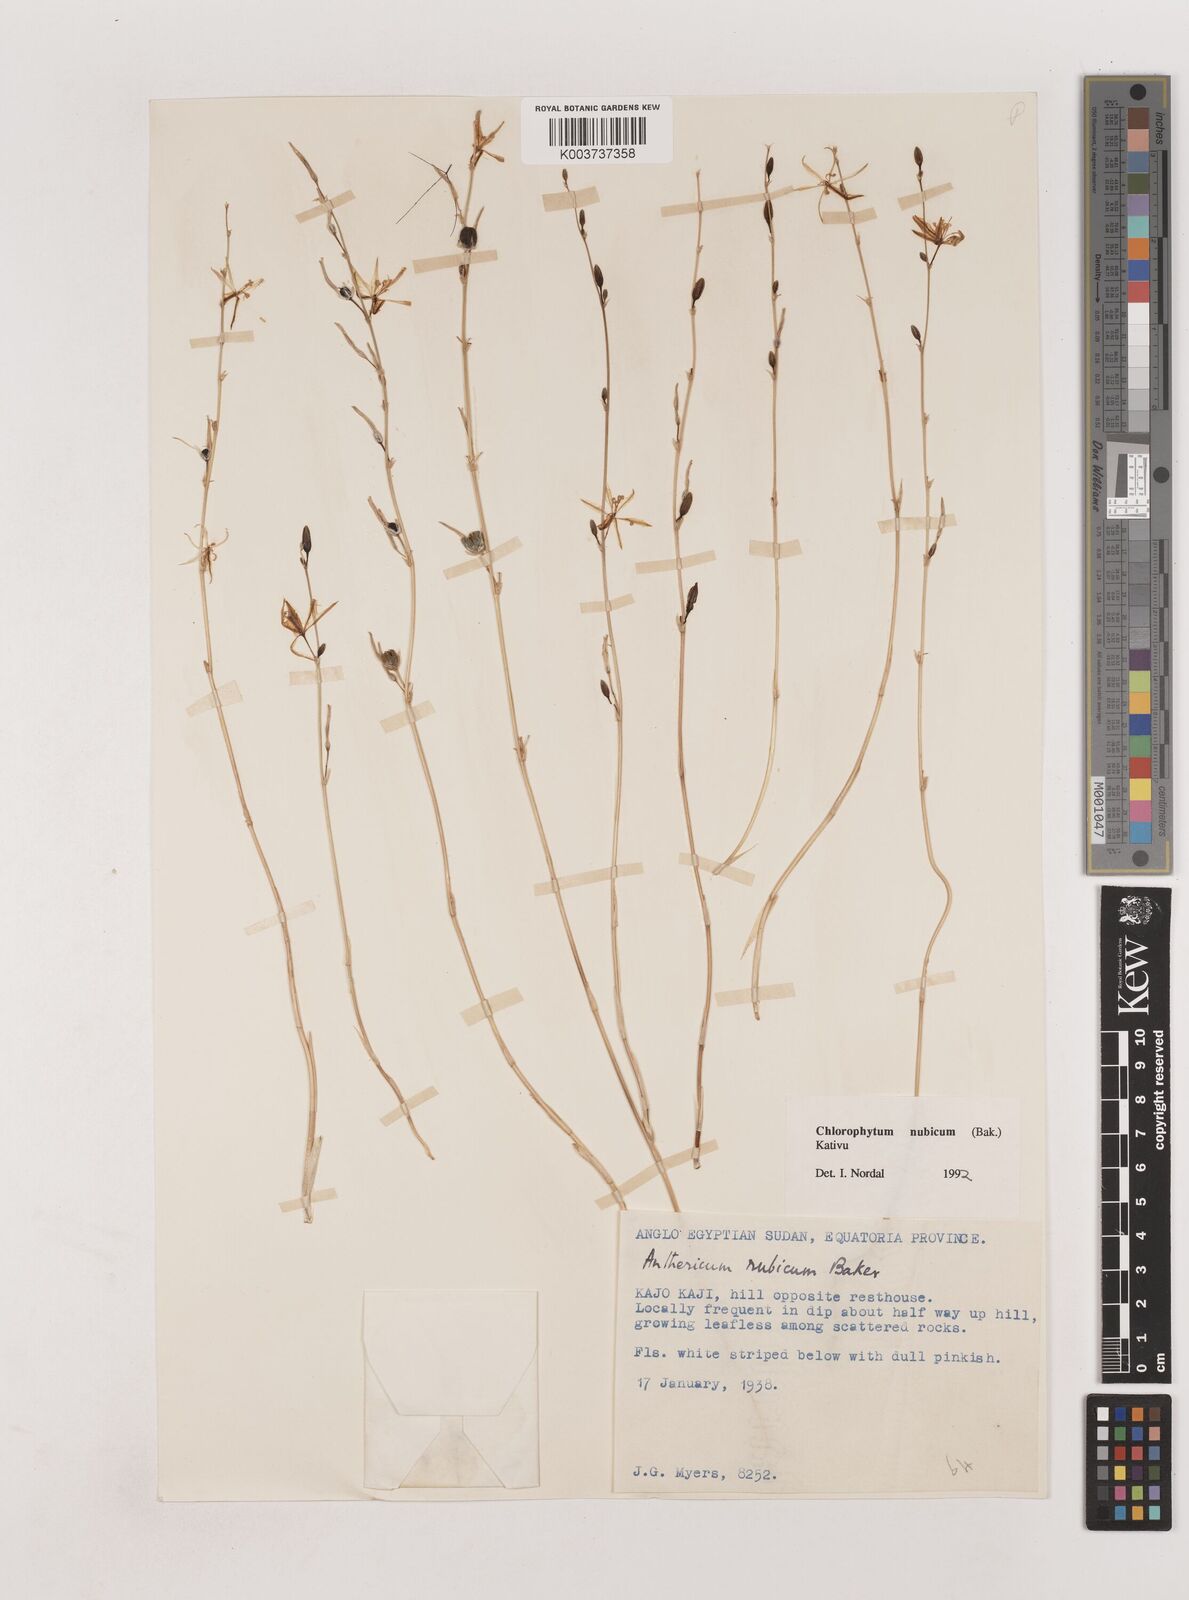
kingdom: Plantae
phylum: Tracheophyta
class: Liliopsida
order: Asparagales
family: Asparagaceae
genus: Chlorophytum
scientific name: Chlorophytum nubicum
